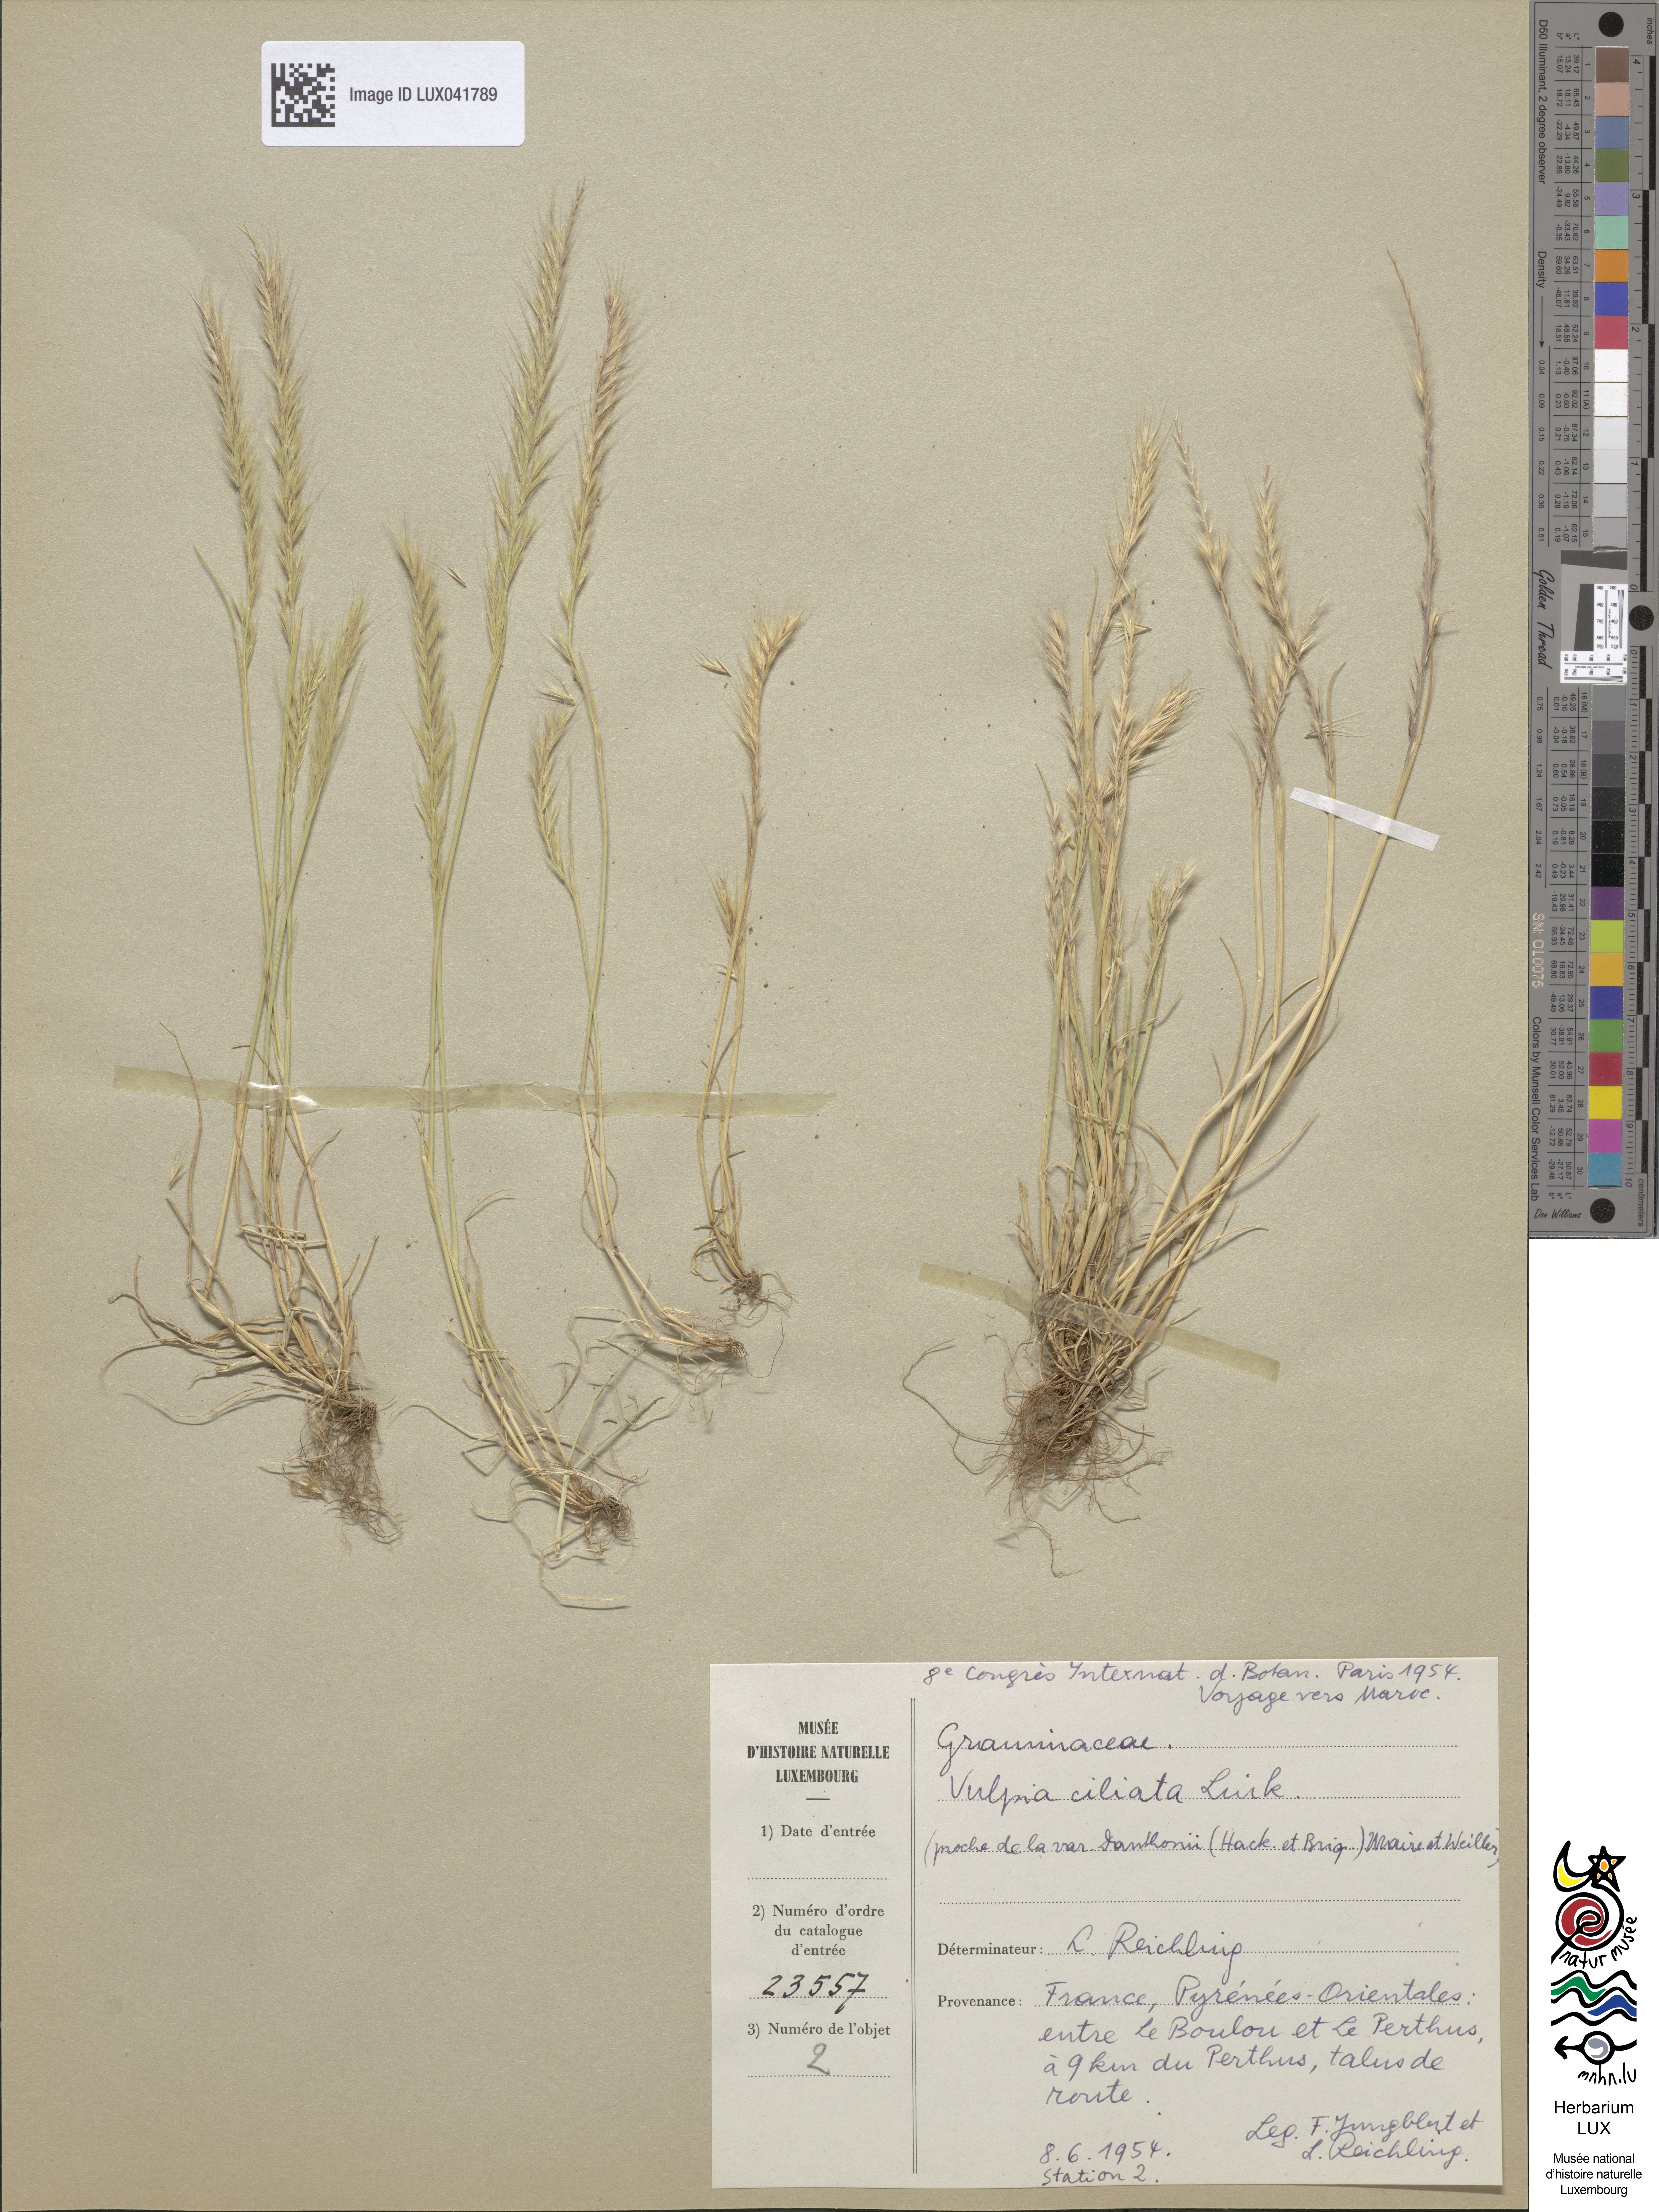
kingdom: Plantae
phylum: Tracheophyta
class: Liliopsida
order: Poales
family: Poaceae
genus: Festuca
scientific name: Festuca ambigua
